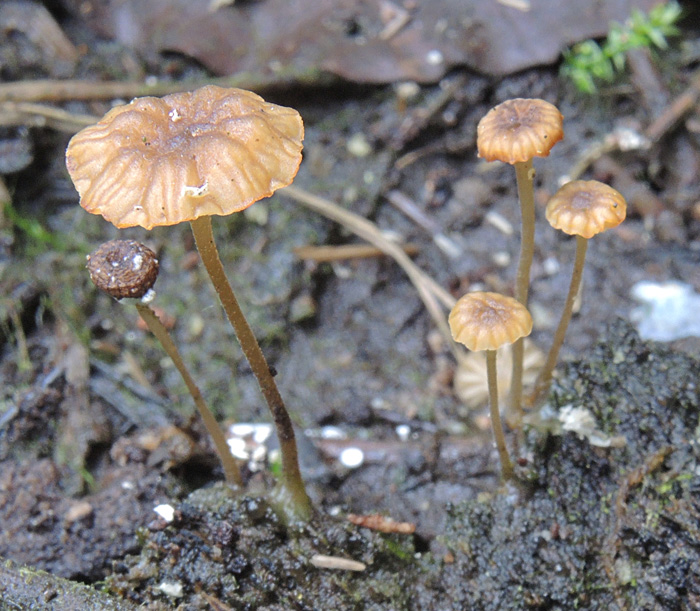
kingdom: Fungi
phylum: Basidiomycota
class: Agaricomycetes
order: Agaricales
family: Porotheleaceae
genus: Phloeomana
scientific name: Phloeomana speirea
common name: kvist-huesvamp
